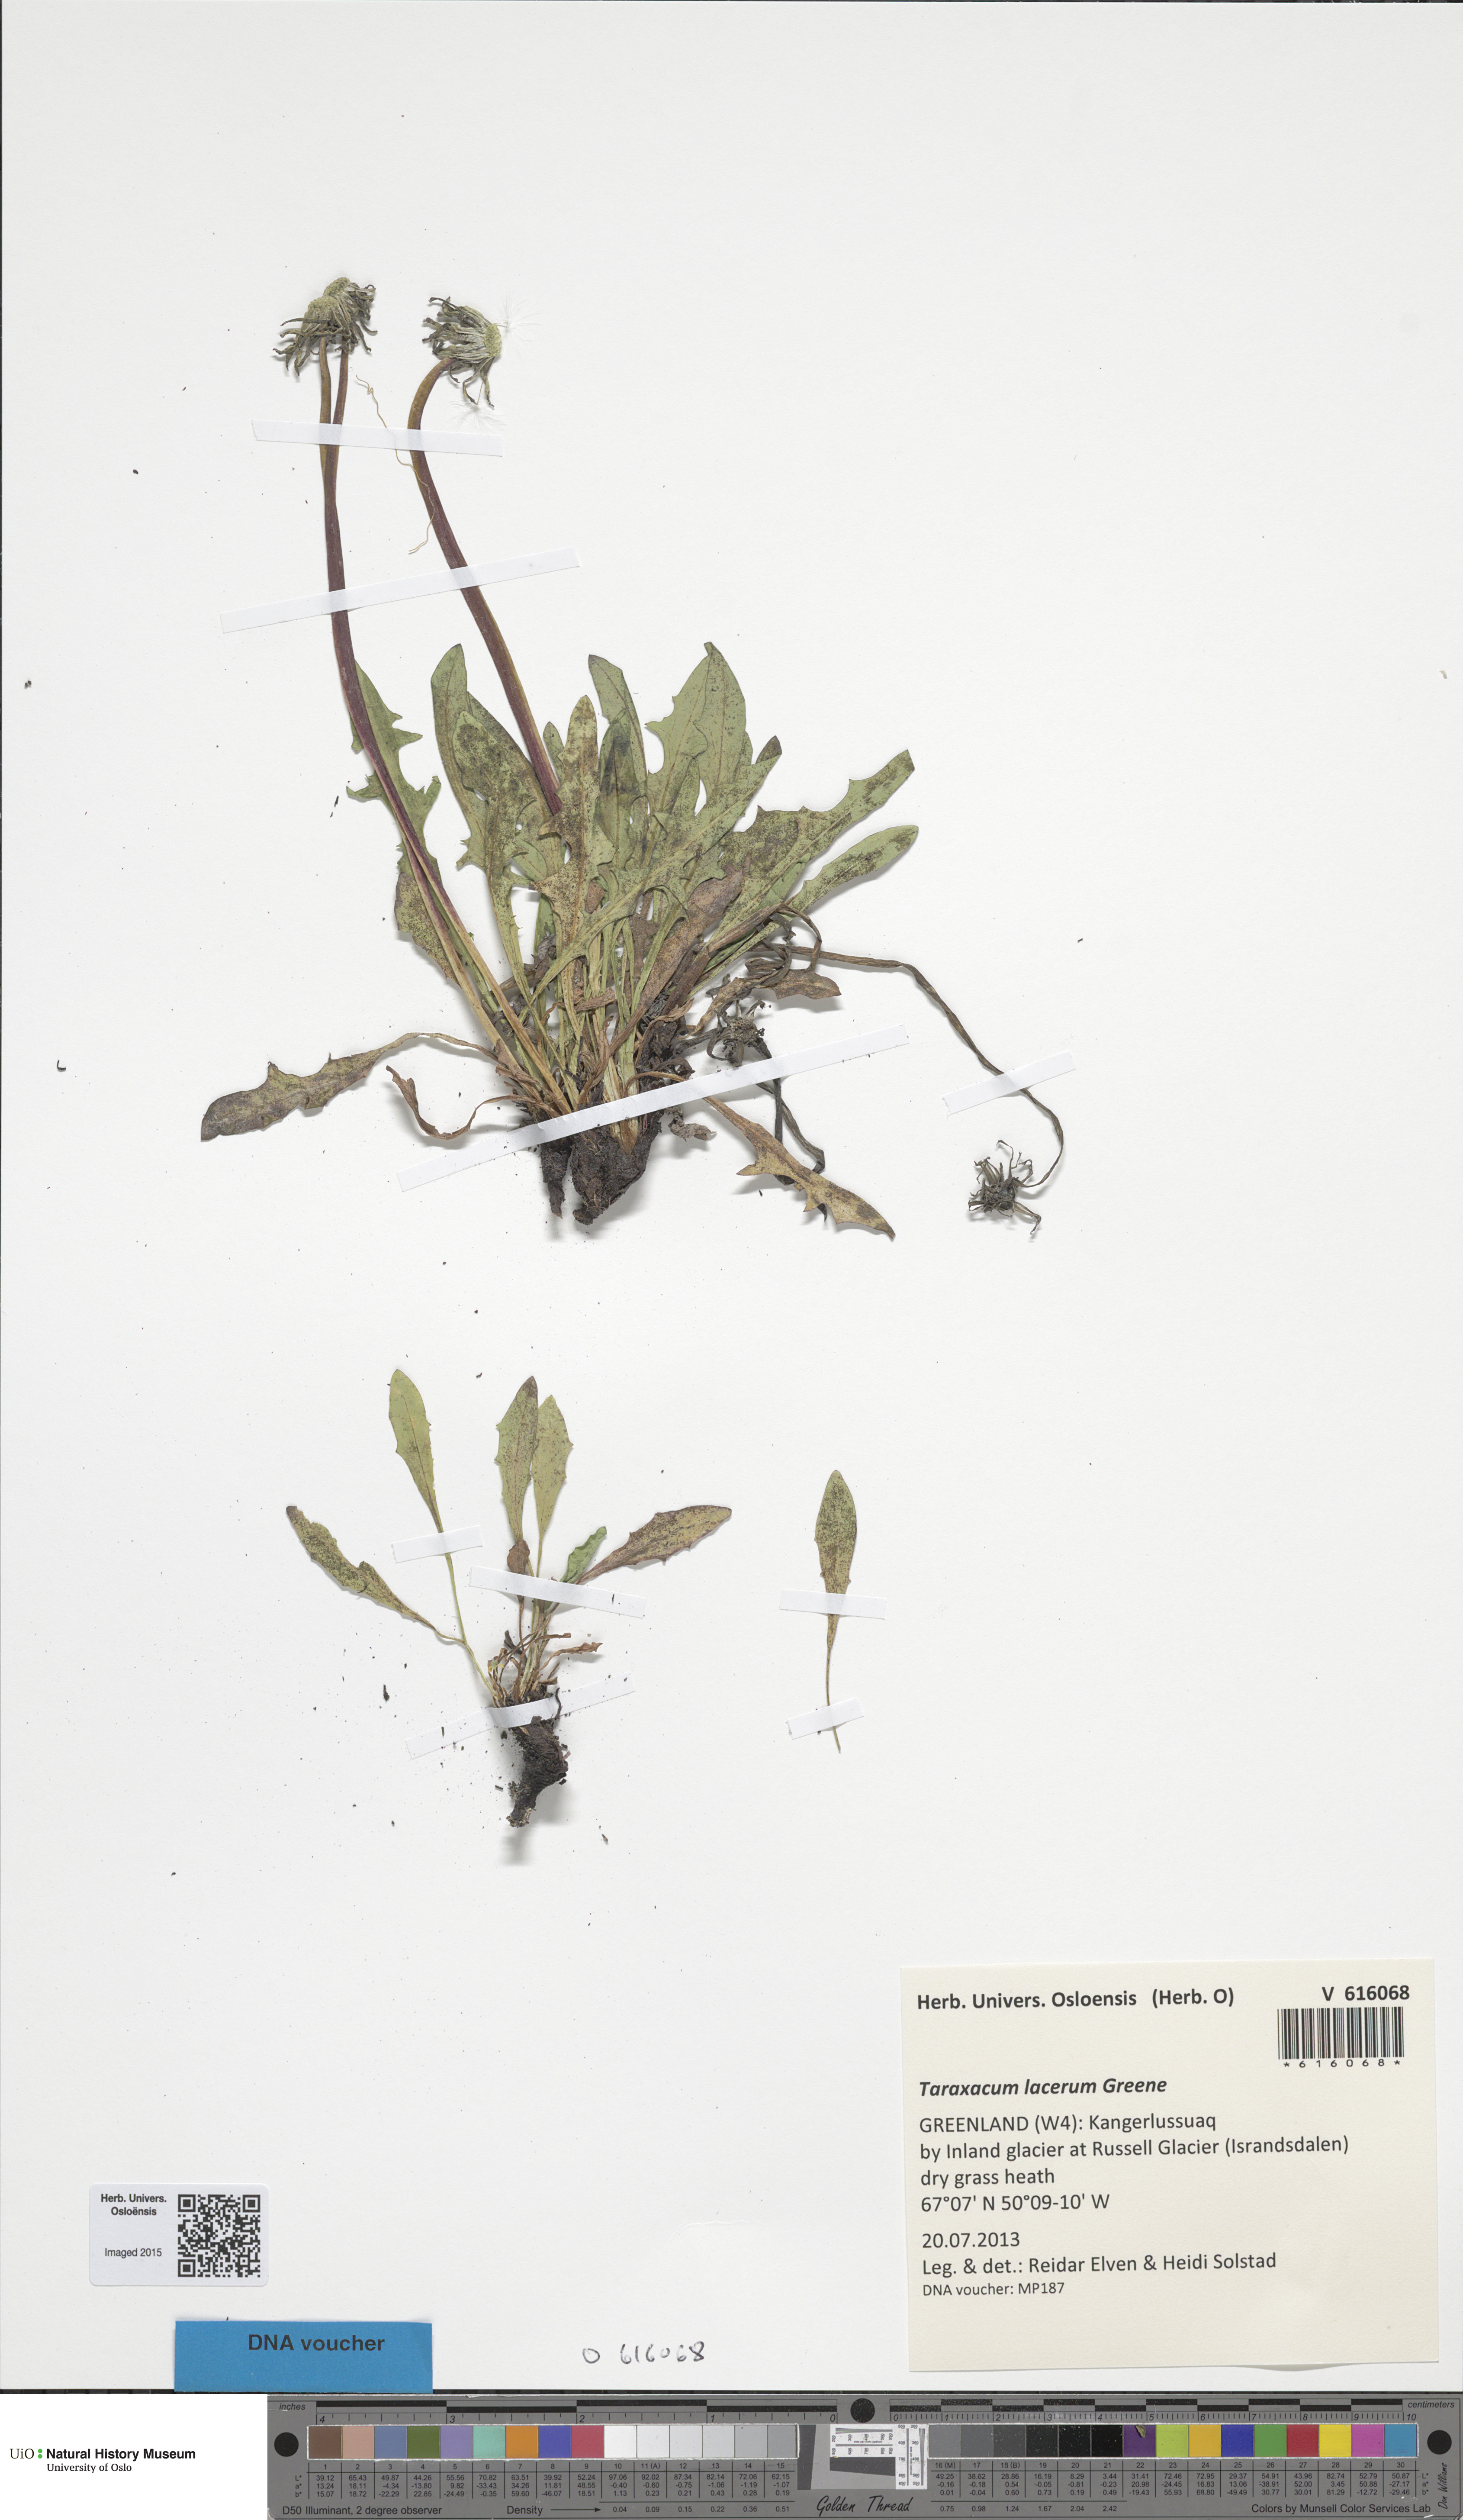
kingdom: Plantae
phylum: Tracheophyta
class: Magnoliopsida
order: Asterales
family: Asteraceae
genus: Taraxacum
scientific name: Taraxacum ceratophorum
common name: Horn-bearing dandelion
